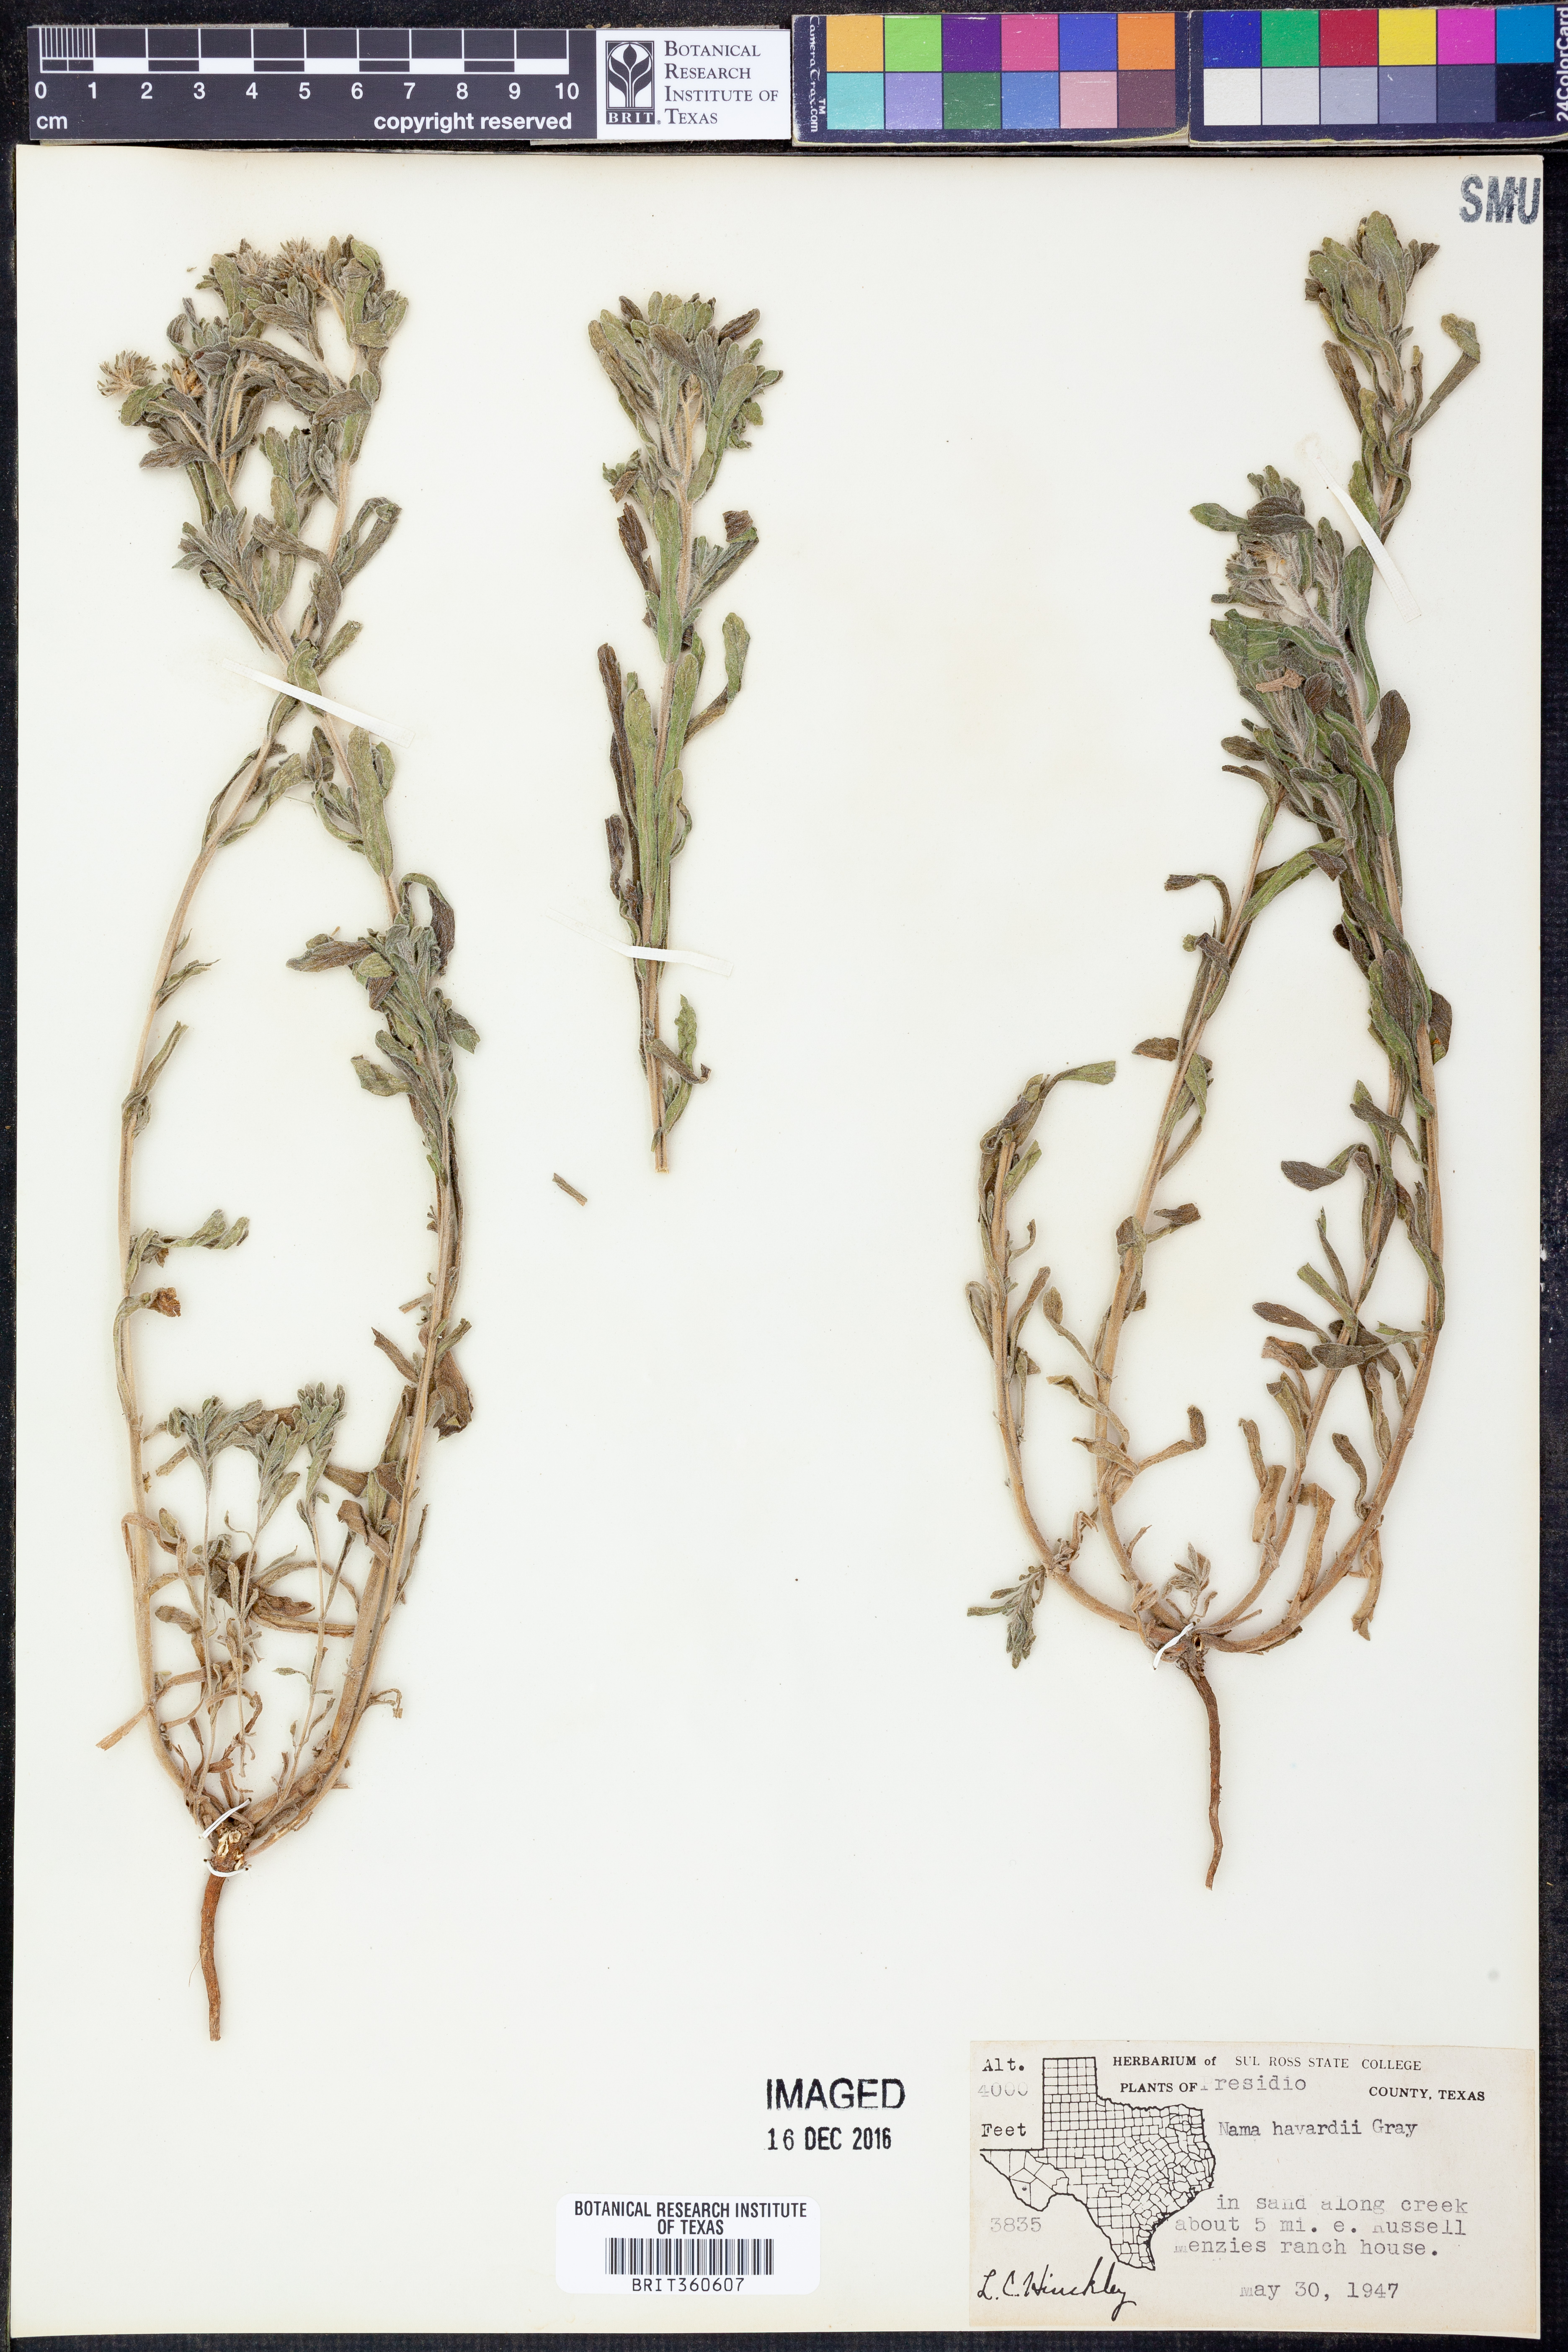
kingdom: Plantae
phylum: Tracheophyta
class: Magnoliopsida
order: Boraginales
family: Namaceae
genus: Nama
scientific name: Nama havardii
